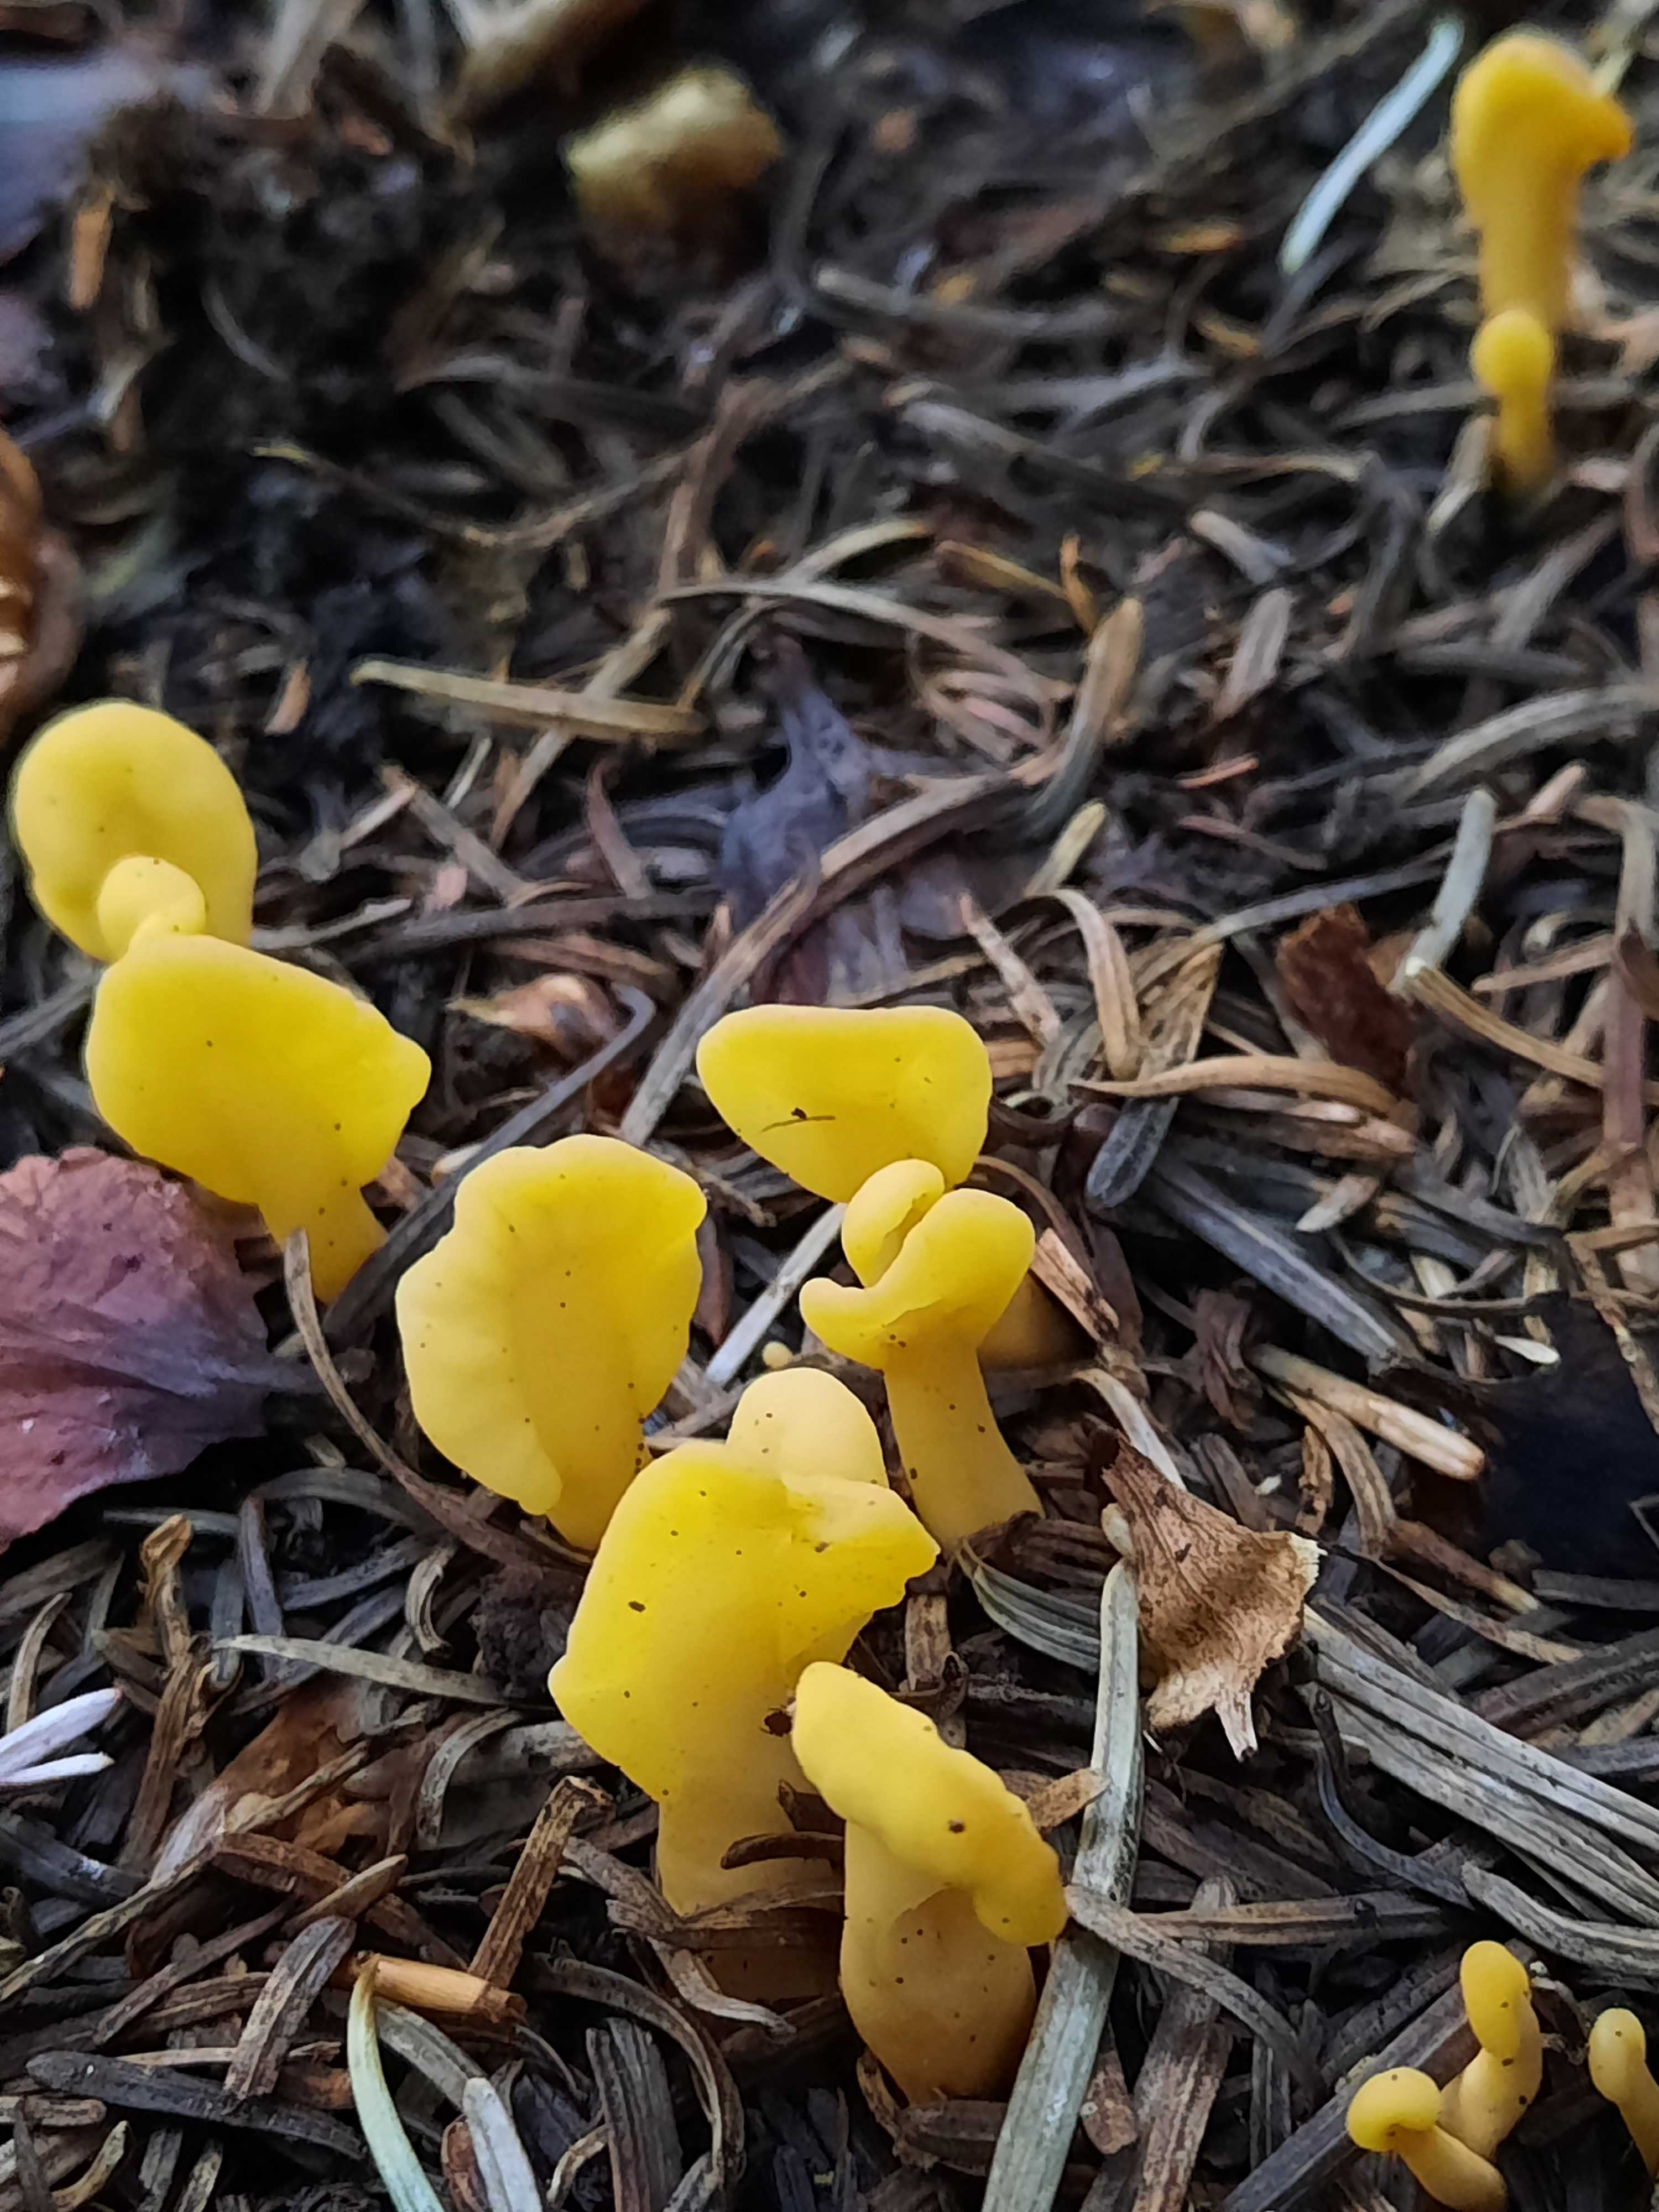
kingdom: Fungi
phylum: Ascomycota
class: Leotiomycetes
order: Rhytismatales
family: Cudoniaceae
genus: Spathularia
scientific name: Spathularia flavida
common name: gul spatelsvamp
